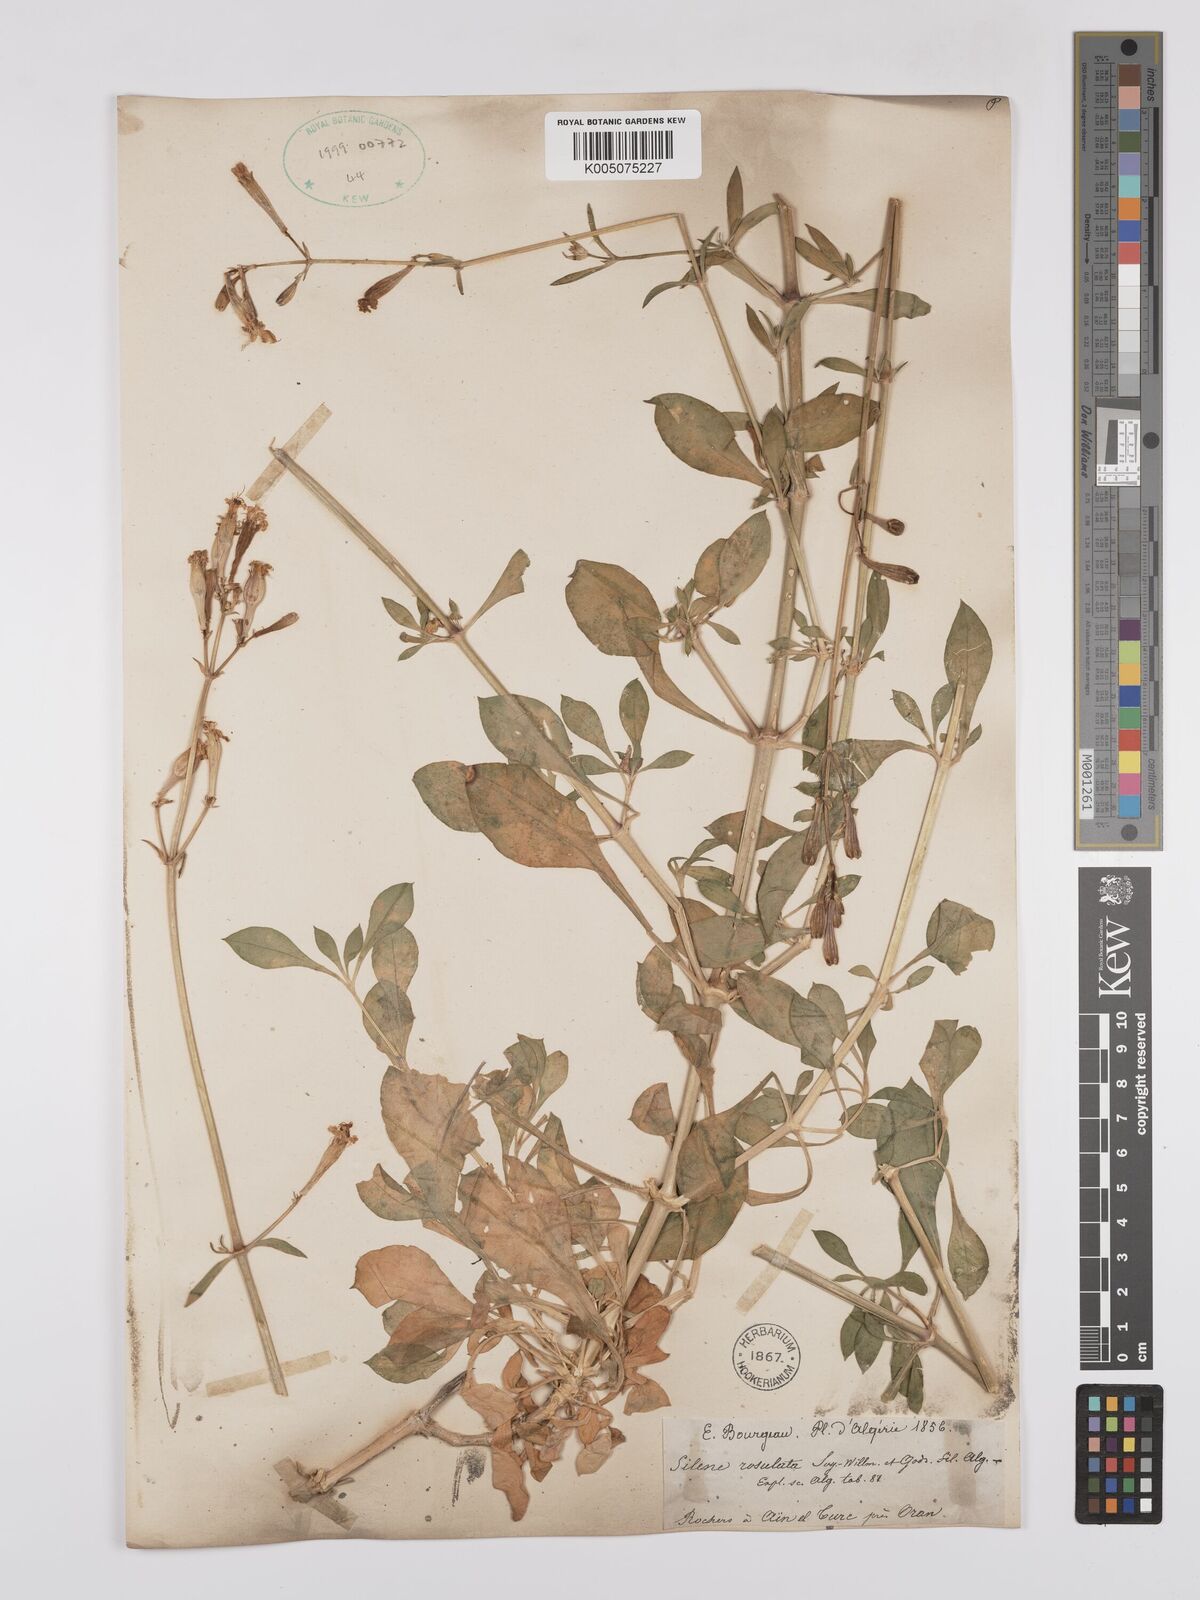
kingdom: Plantae
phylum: Tracheophyta
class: Magnoliopsida
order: Caryophyllales
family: Caryophyllaceae
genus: Silene
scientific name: Silene rosulata
